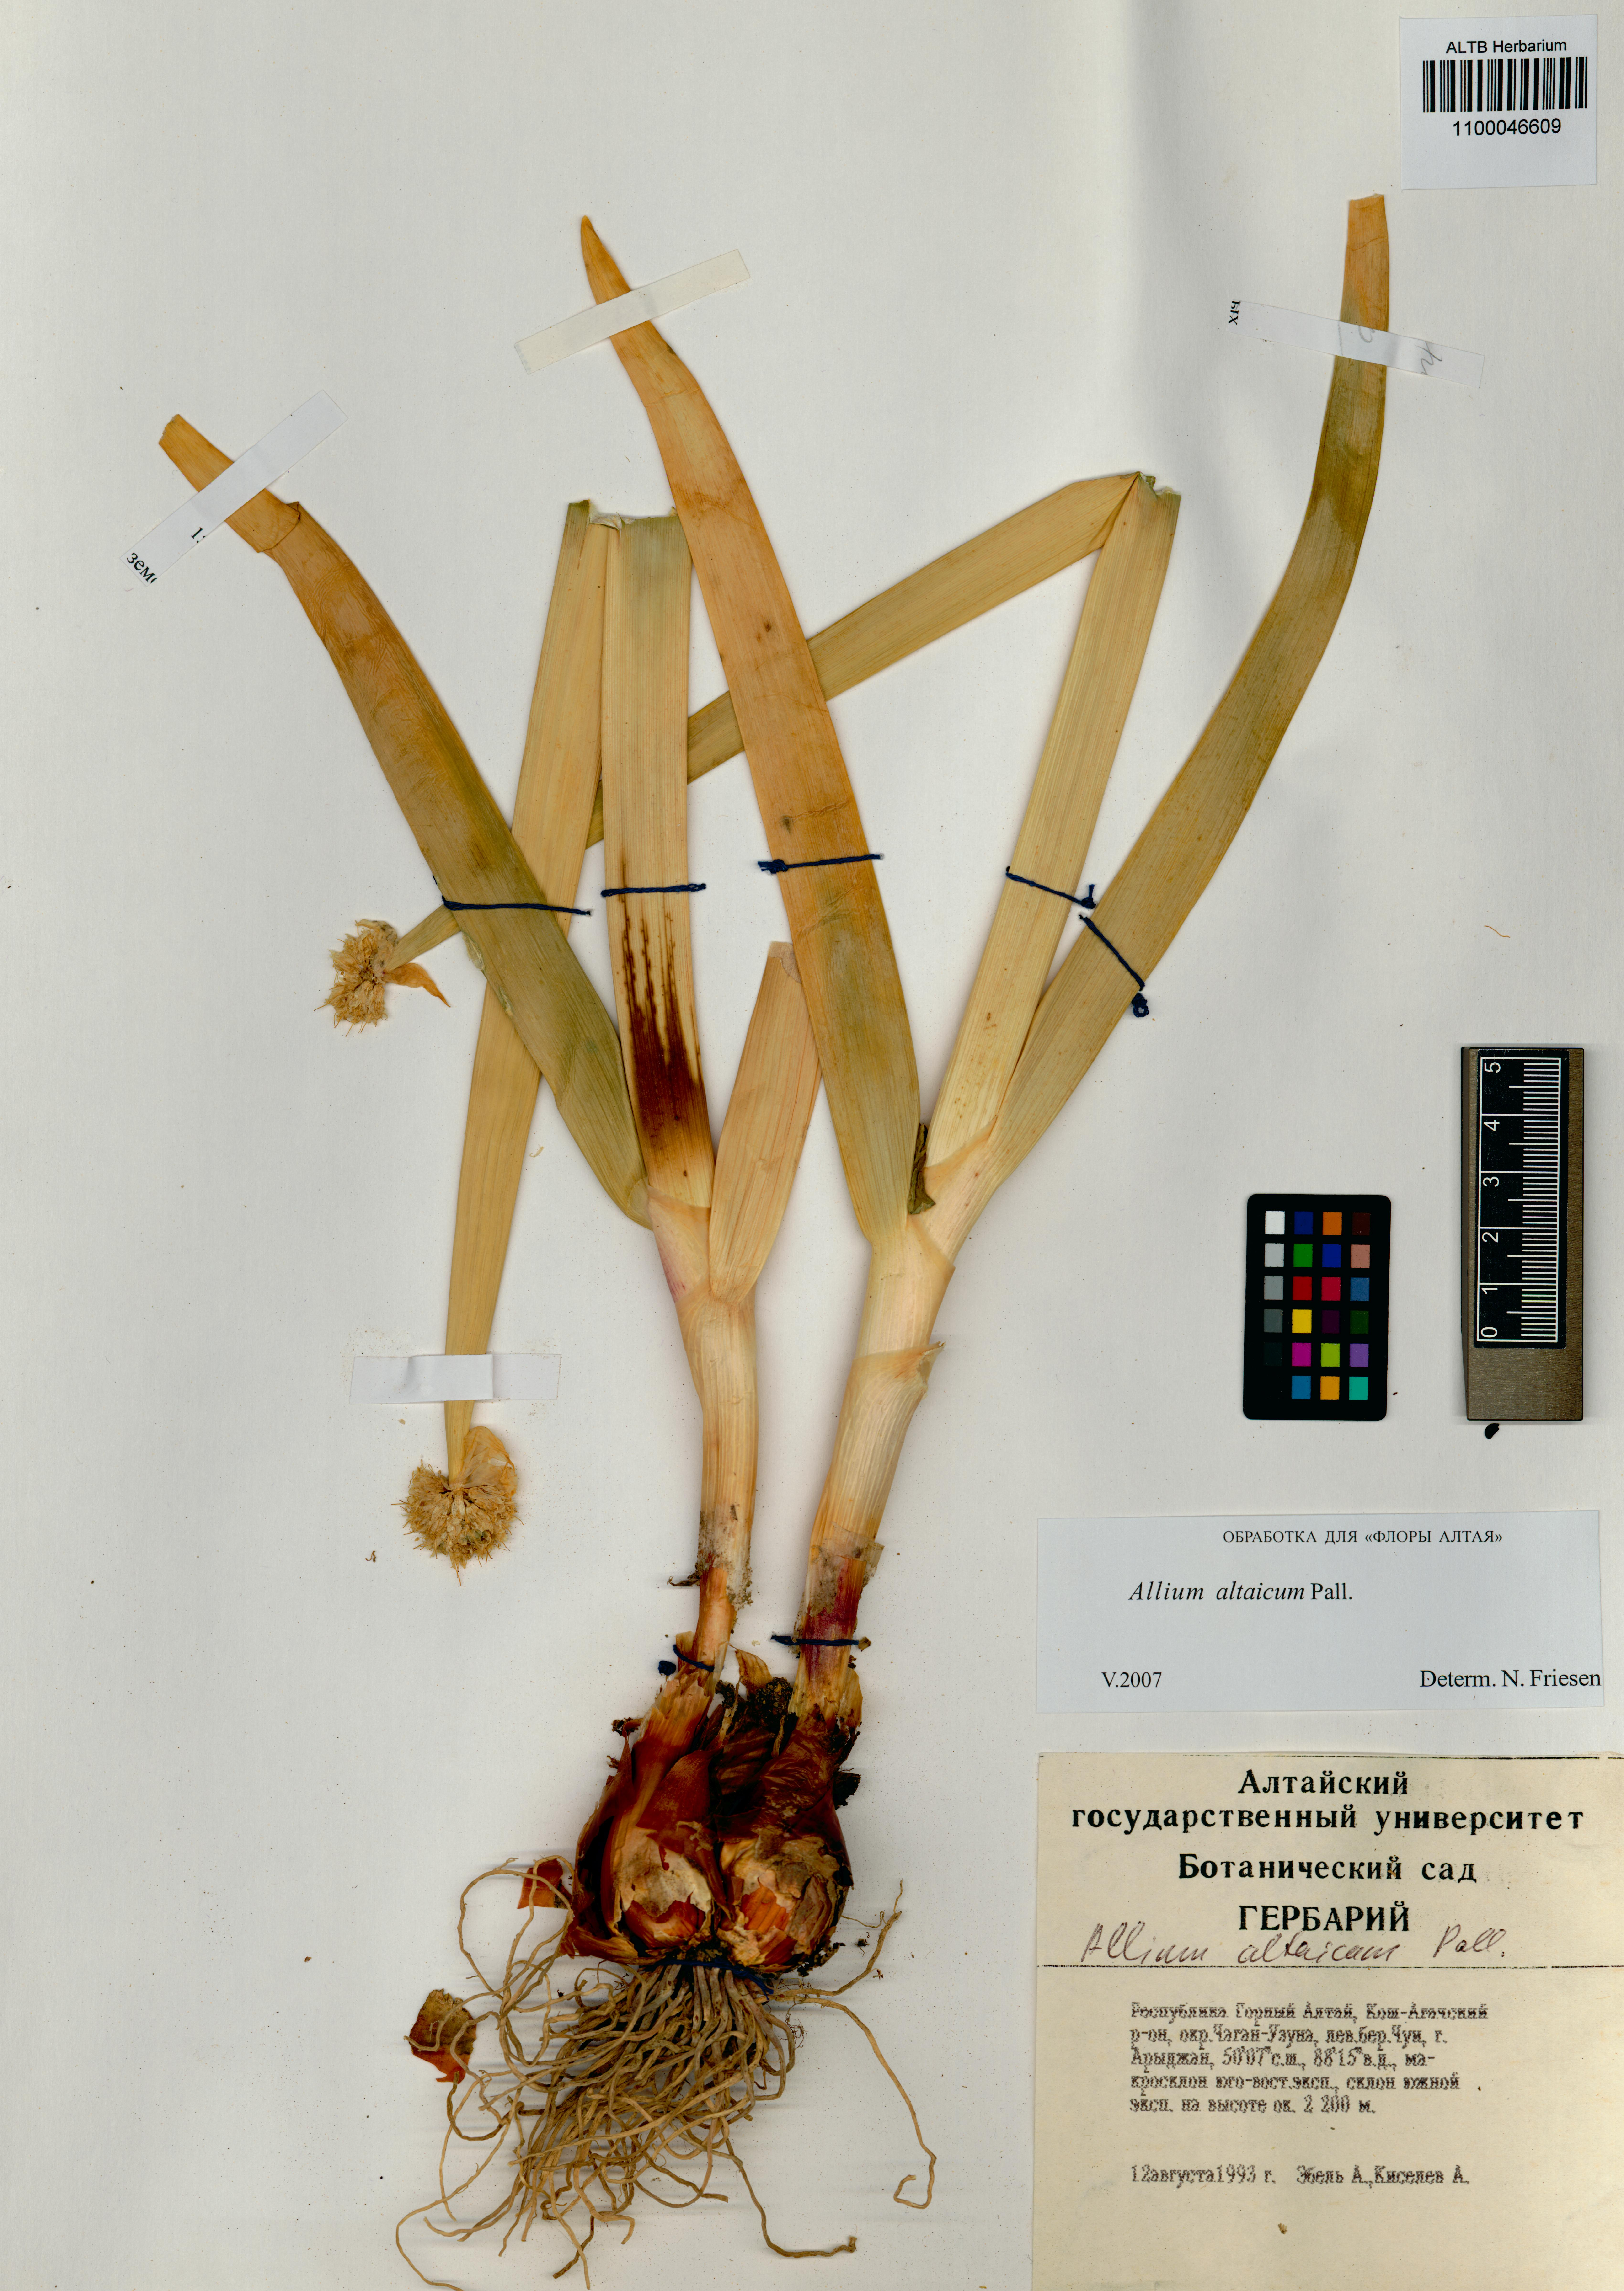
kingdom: Plantae
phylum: Tracheophyta
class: Liliopsida
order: Asparagales
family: Amaryllidaceae
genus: Allium
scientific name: Allium altaicum
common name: Altai onion
